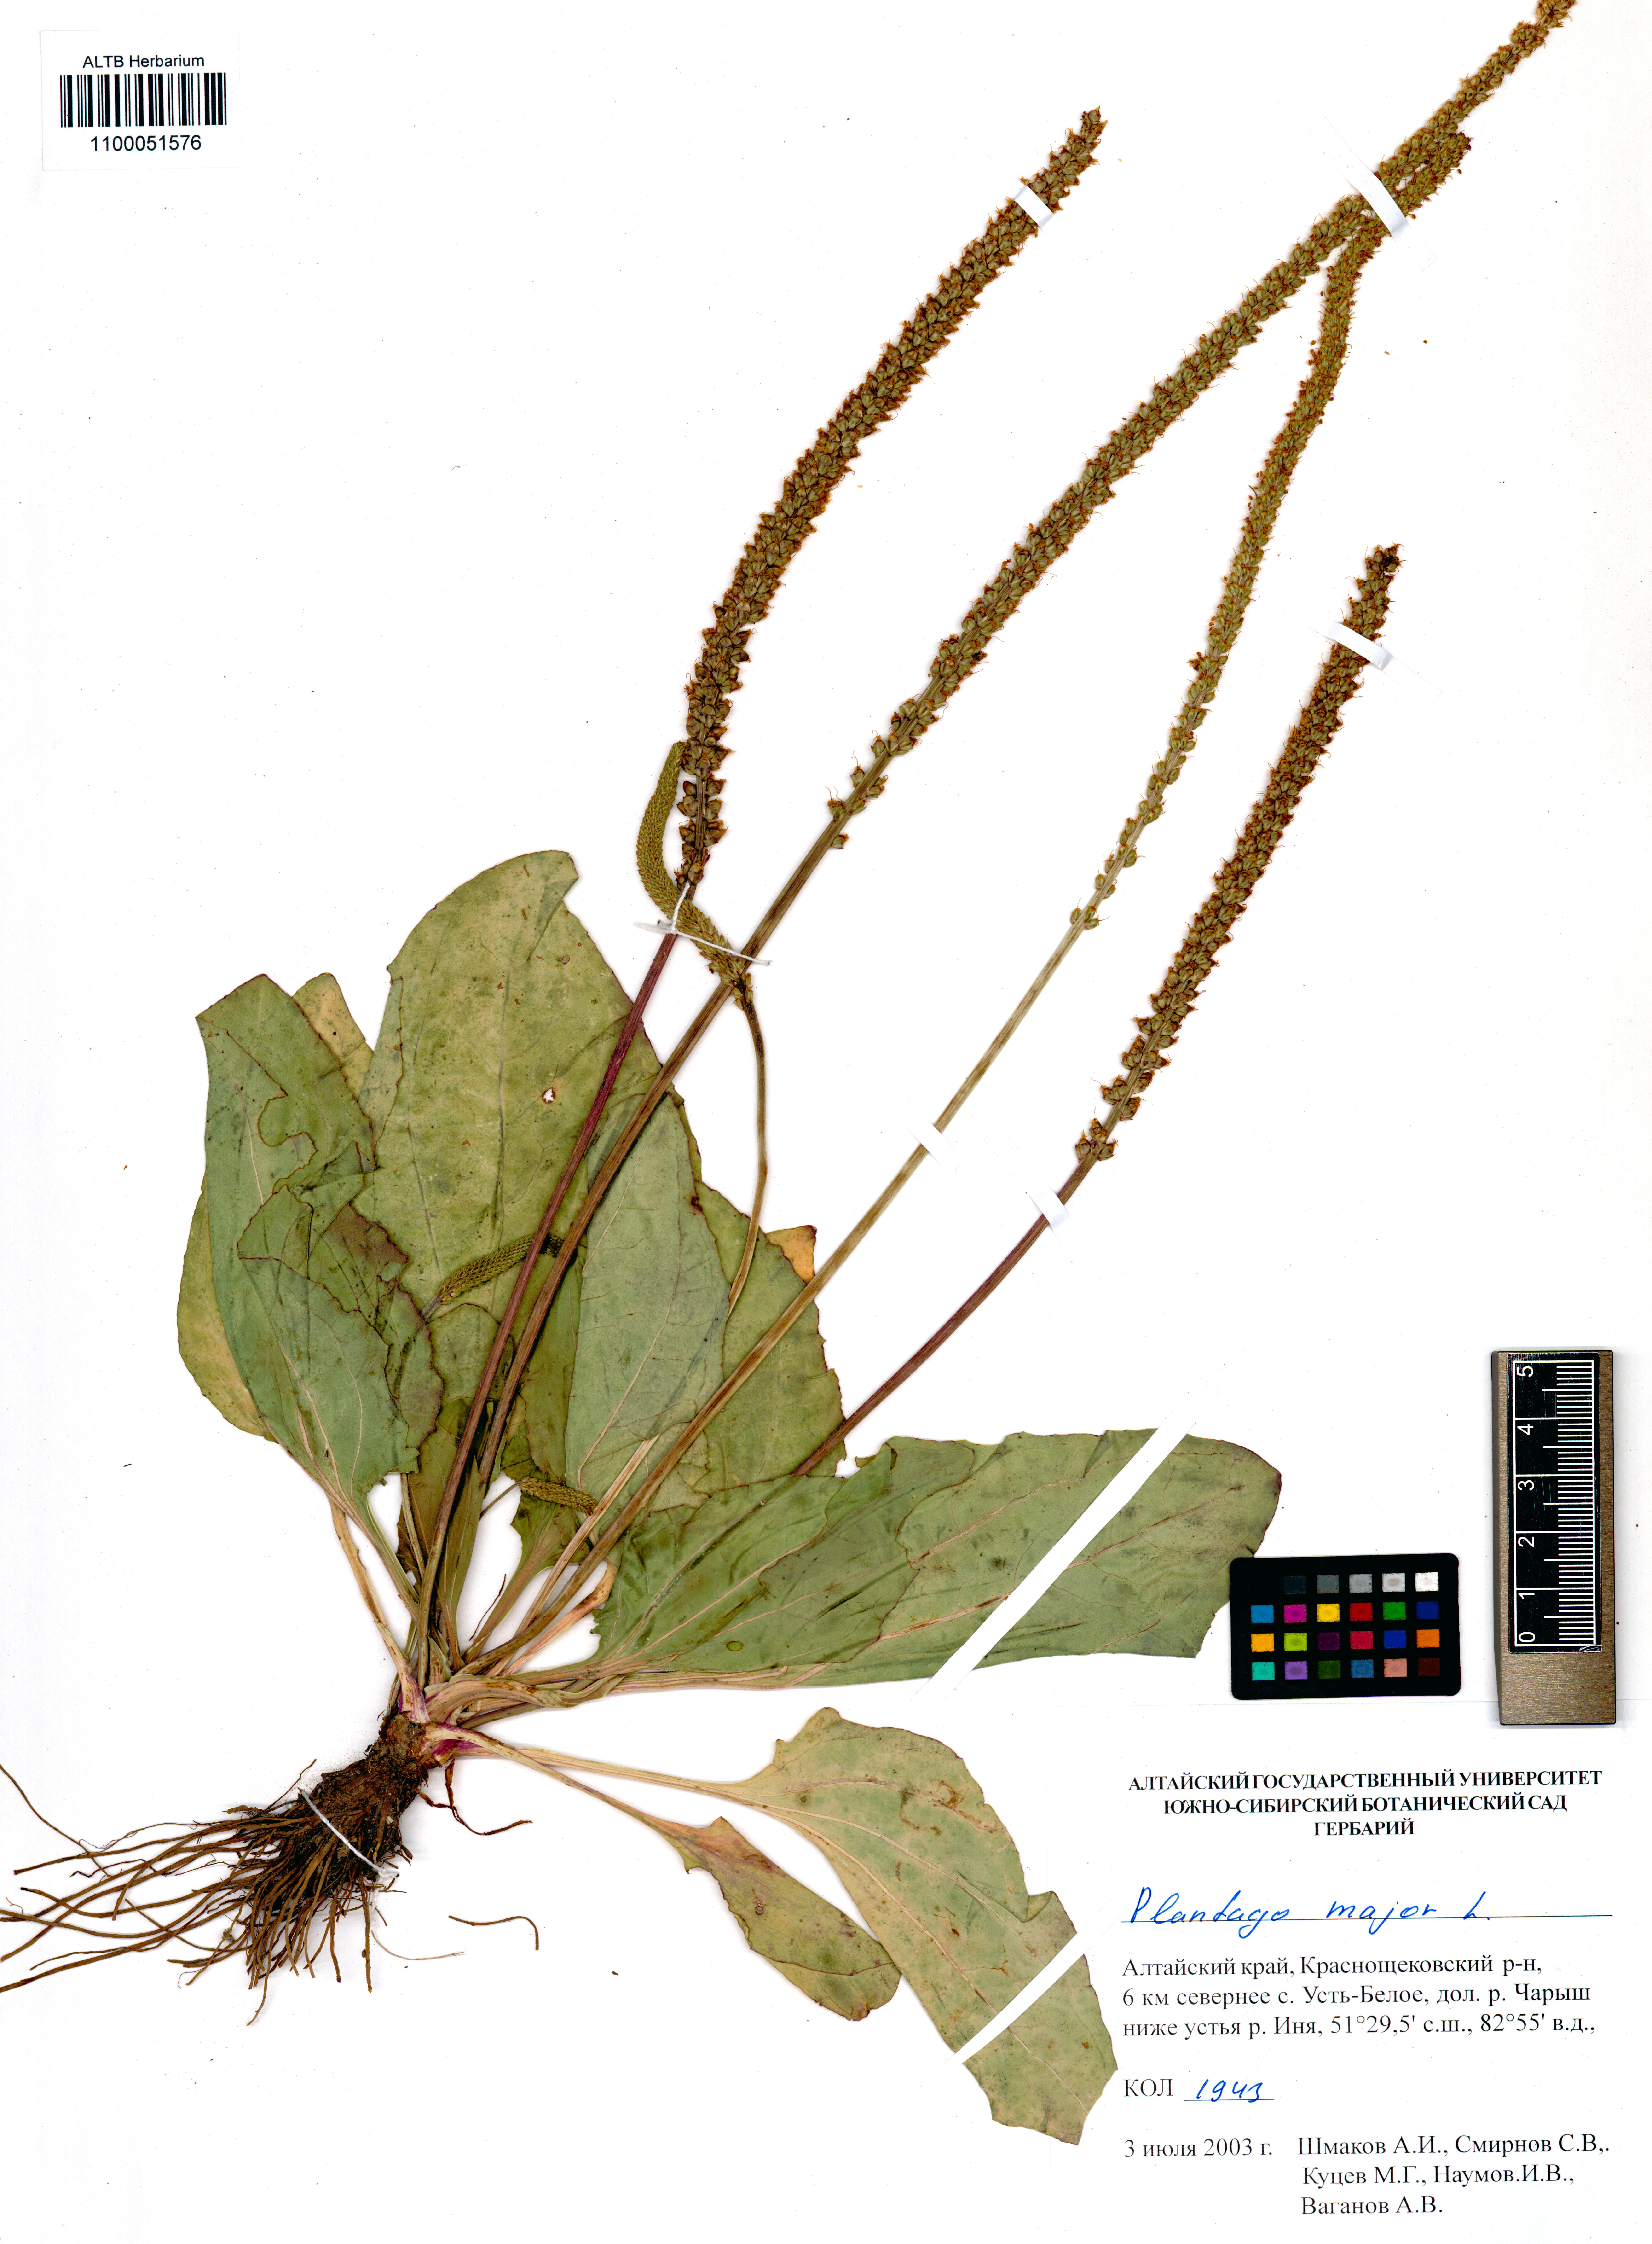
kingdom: Plantae
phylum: Tracheophyta
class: Magnoliopsida
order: Lamiales
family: Plantaginaceae
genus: Plantago
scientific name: Plantago major
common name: Common plantain
